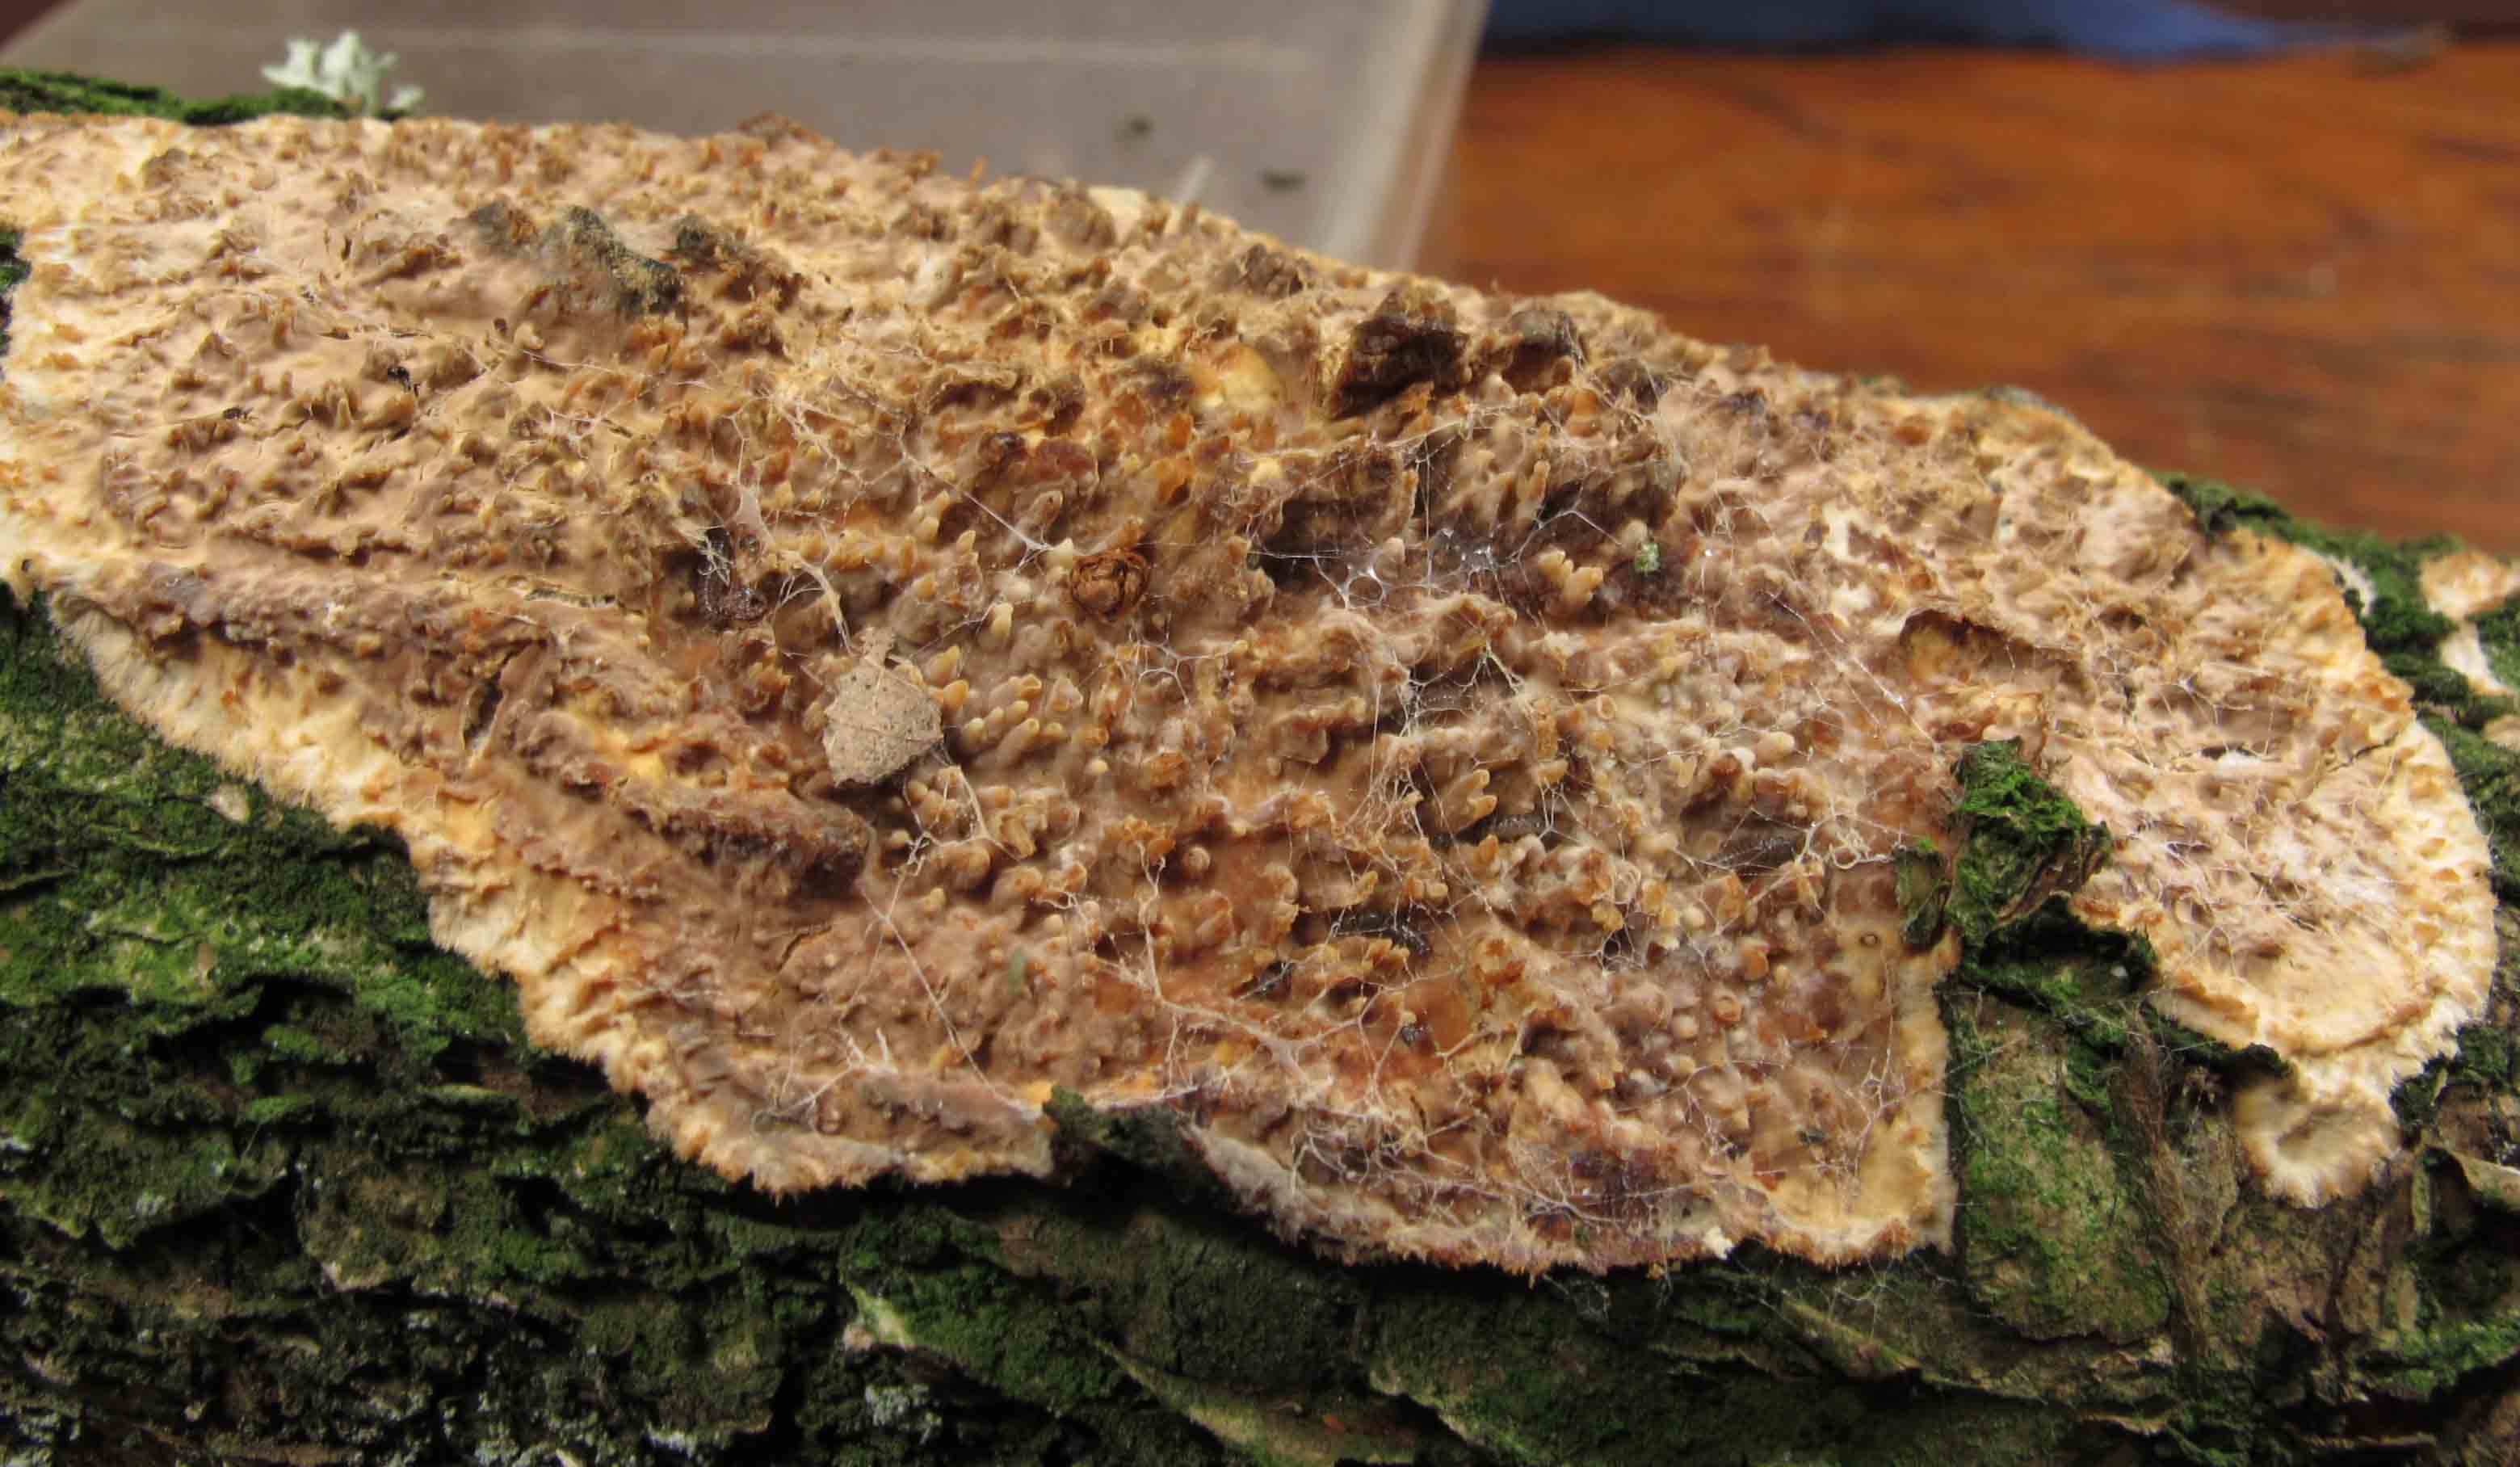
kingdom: Fungi
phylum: Basidiomycota
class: Agaricomycetes
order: Agaricales
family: Radulomycetaceae
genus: Radulomyces
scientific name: Radulomyces molaris
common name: tandet naftalinskind
